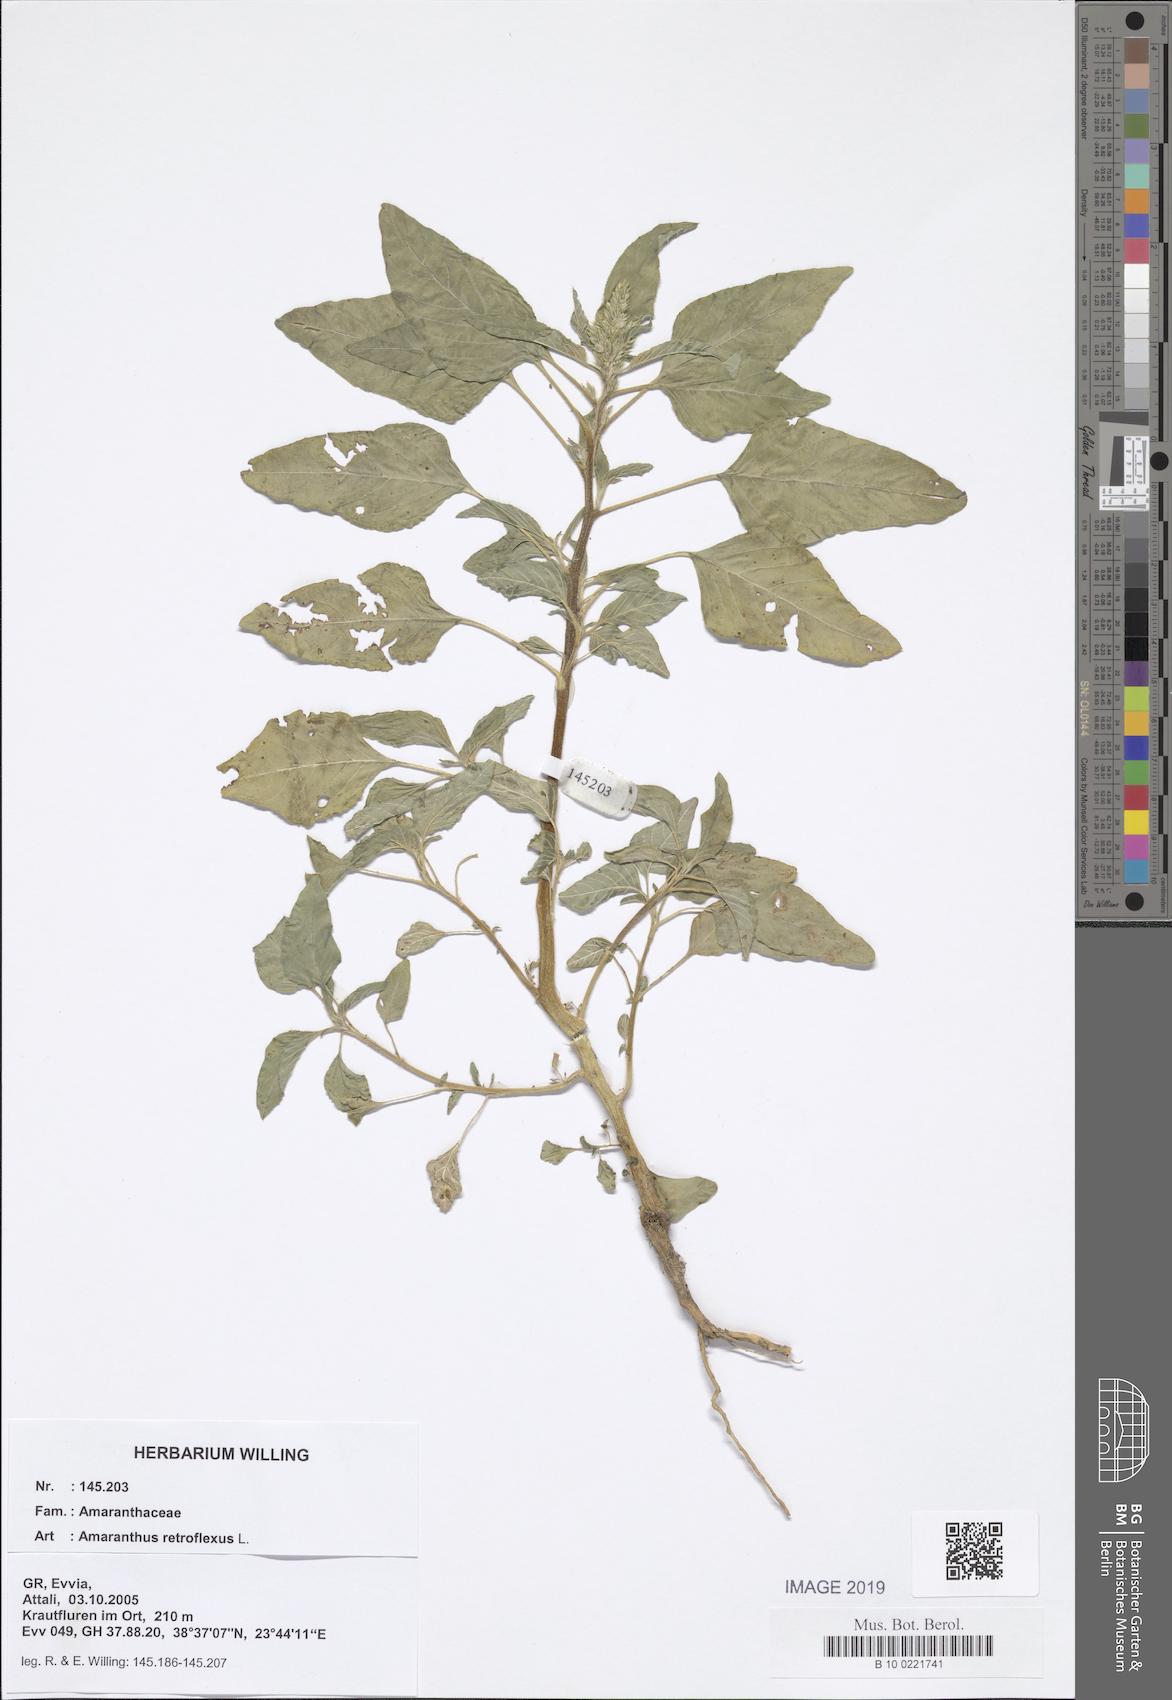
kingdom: Plantae
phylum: Tracheophyta
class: Magnoliopsida
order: Caryophyllales
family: Amaranthaceae
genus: Amaranthus
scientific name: Amaranthus retroflexus
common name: Redroot amaranth
